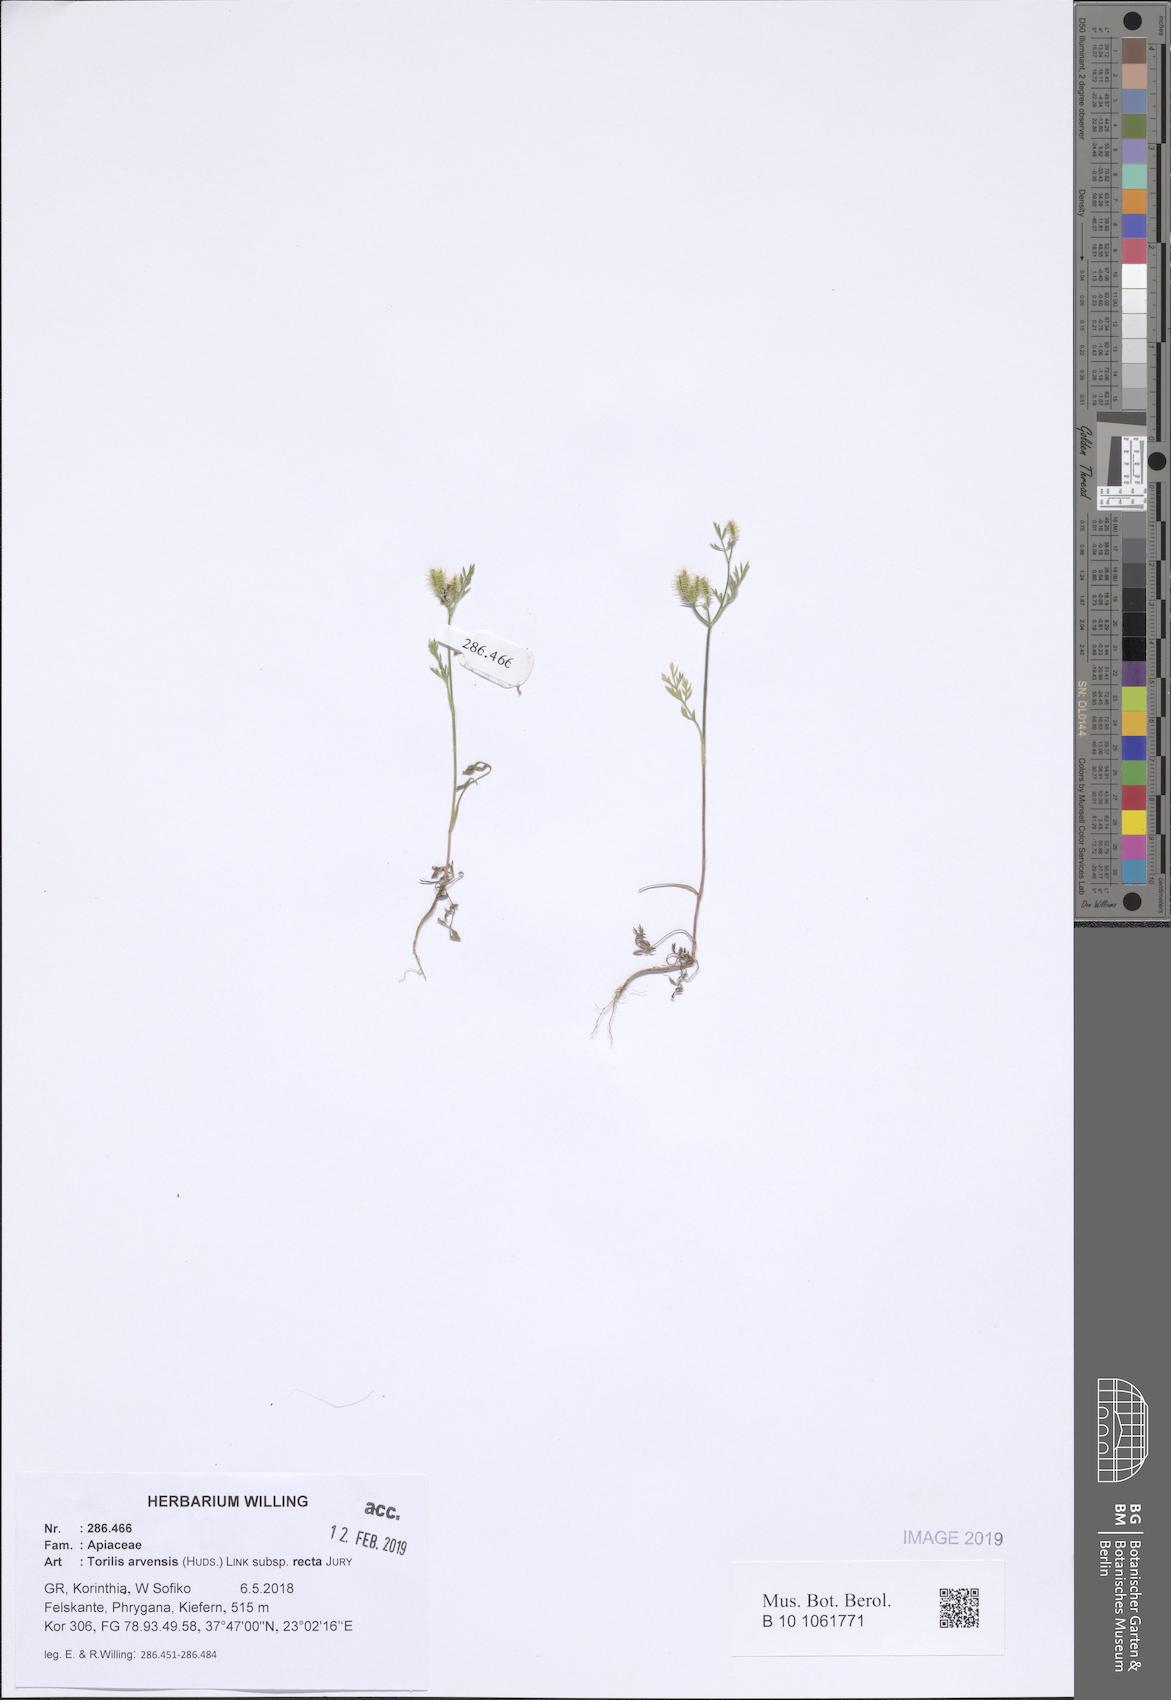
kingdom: Plantae
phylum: Tracheophyta
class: Magnoliopsida
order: Apiales
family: Apiaceae
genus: Torilis
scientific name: Torilis arvensis
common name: Spreading hedge-parsley
